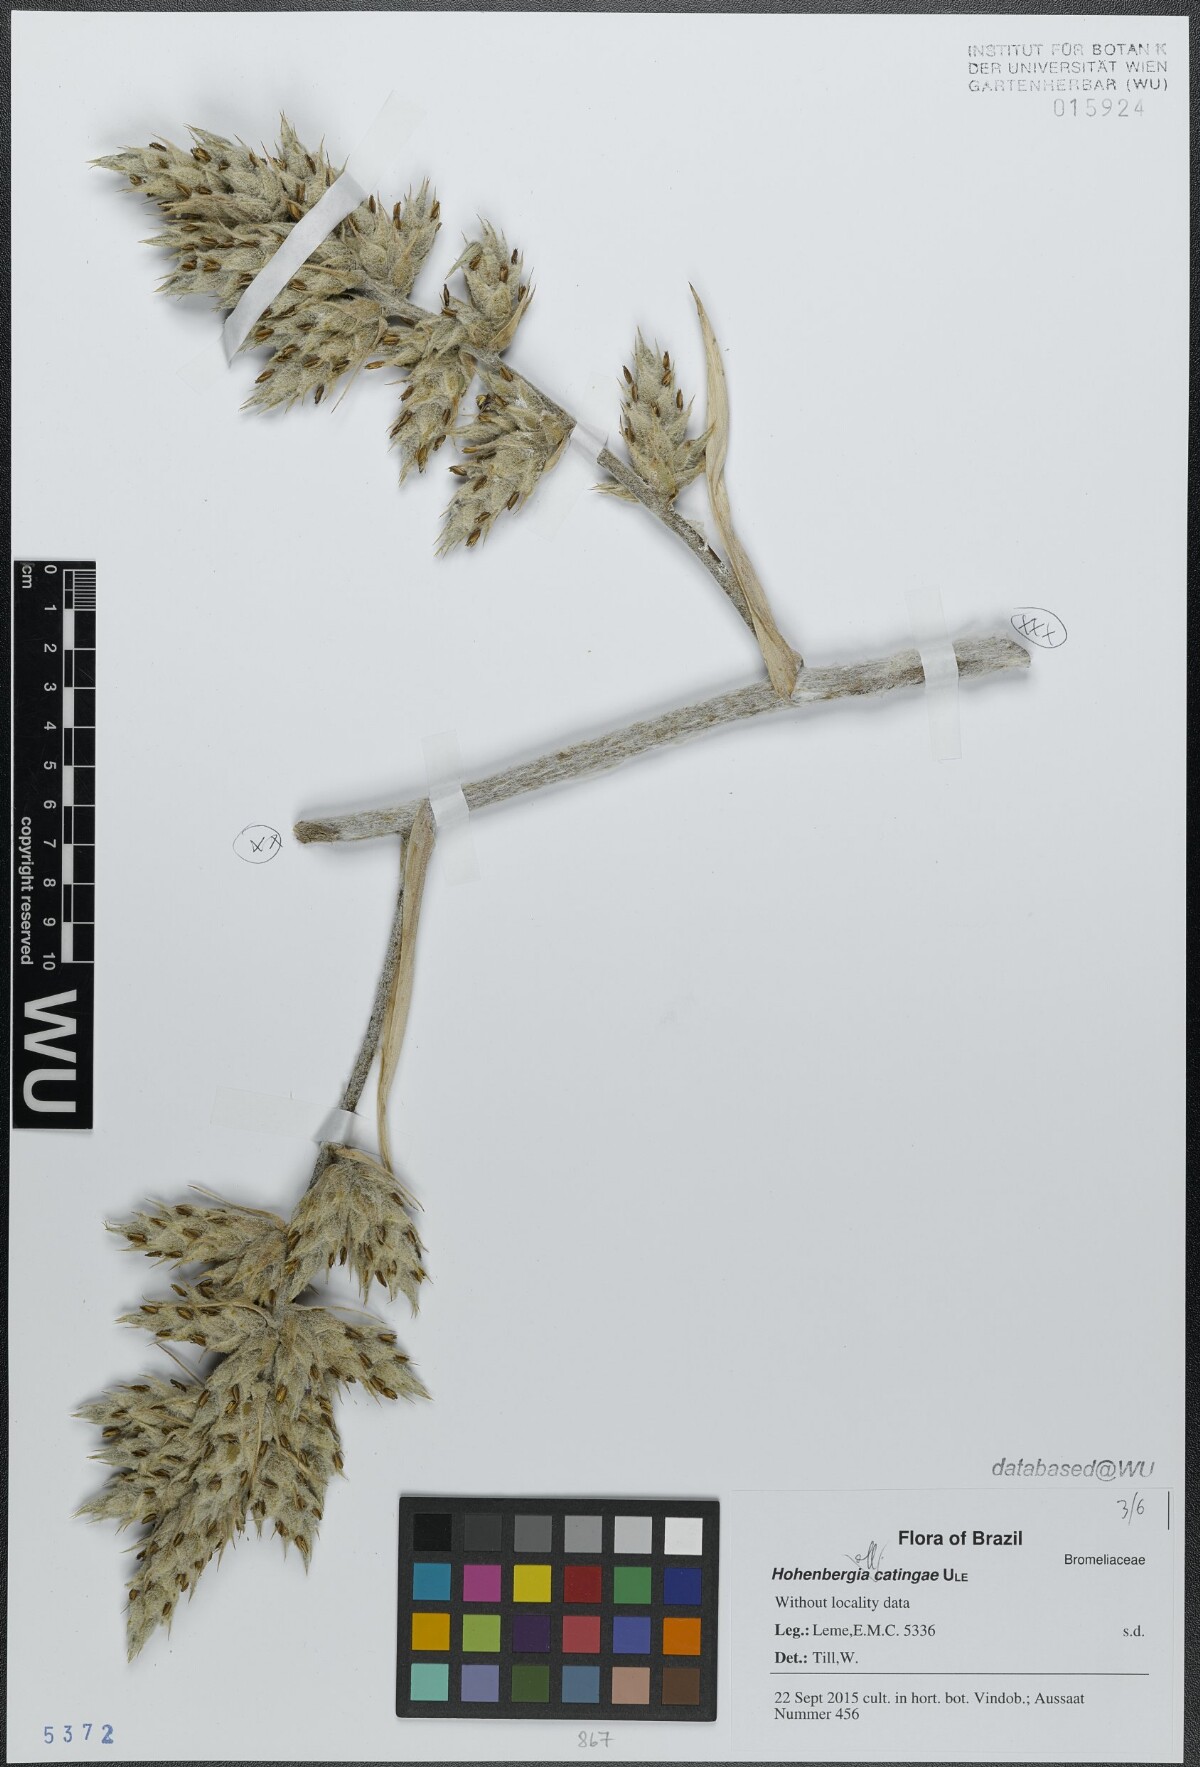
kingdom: Plantae
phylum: Tracheophyta
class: Liliopsida
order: Poales
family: Bromeliaceae
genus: Hohenbergia
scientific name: Hohenbergia catingae
